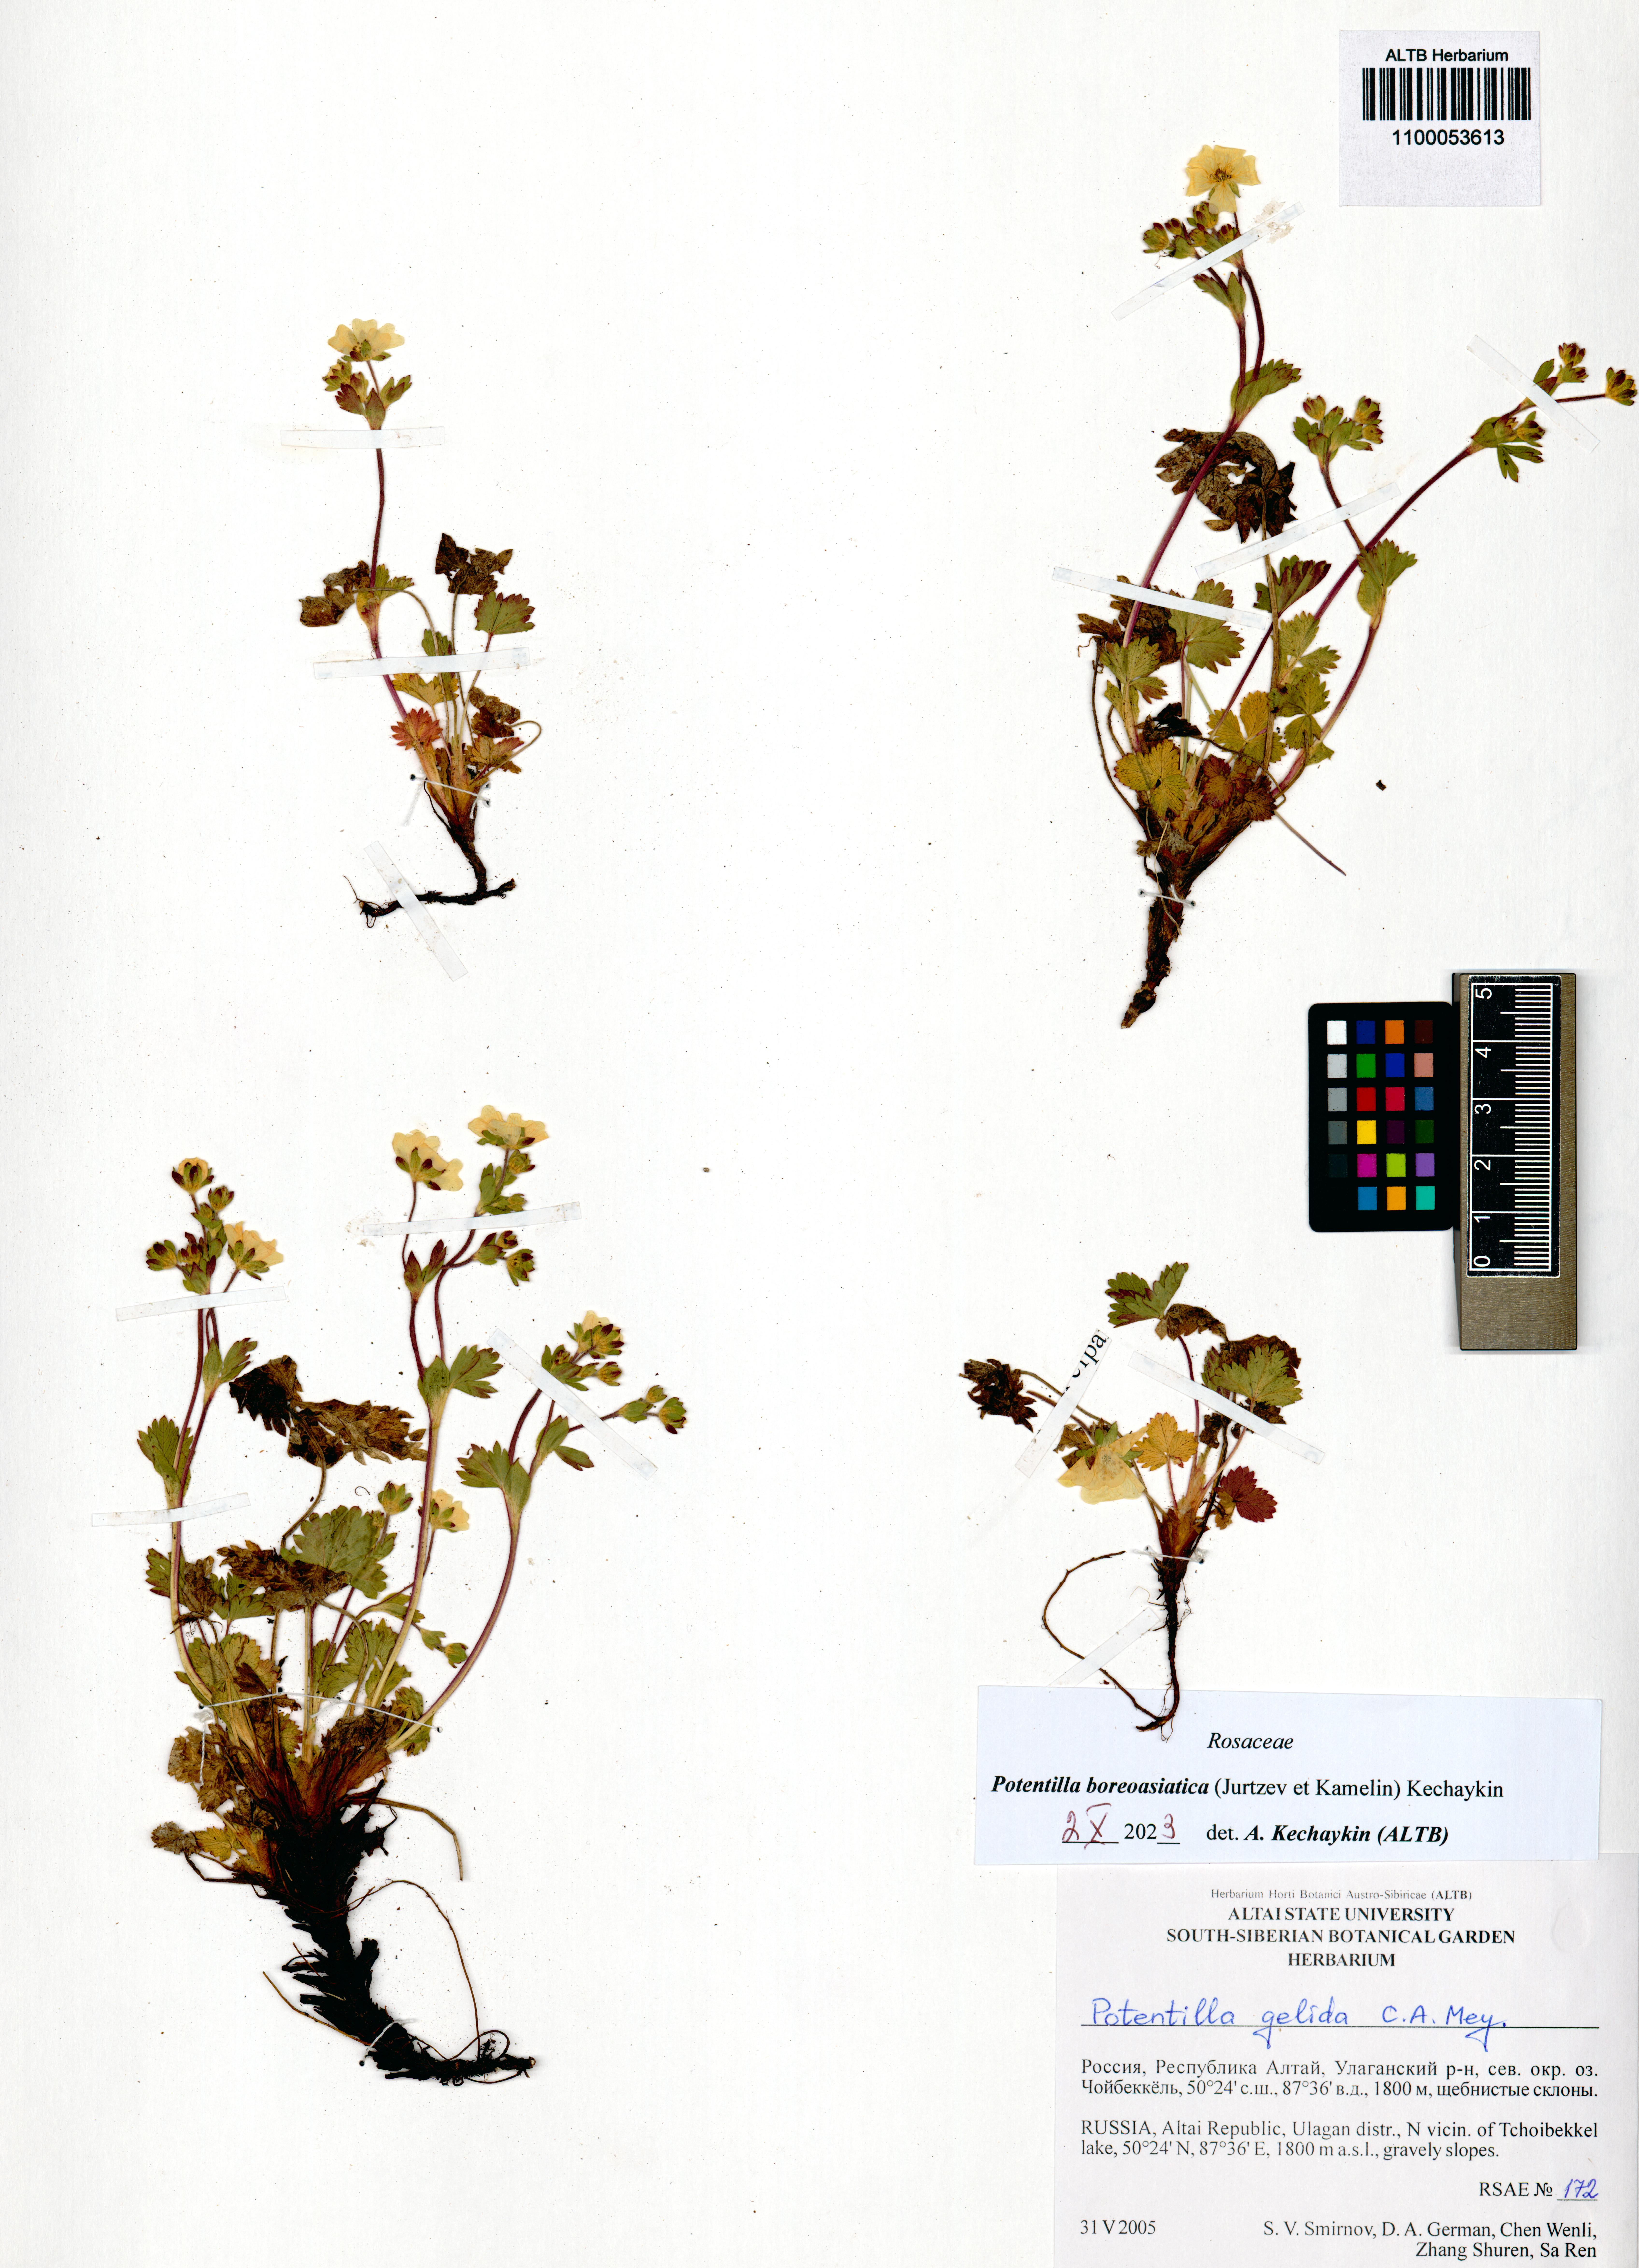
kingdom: Plantae
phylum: Tracheophyta
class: Magnoliopsida
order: Rosales
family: Rosaceae
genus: Potentilla
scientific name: Potentilla
